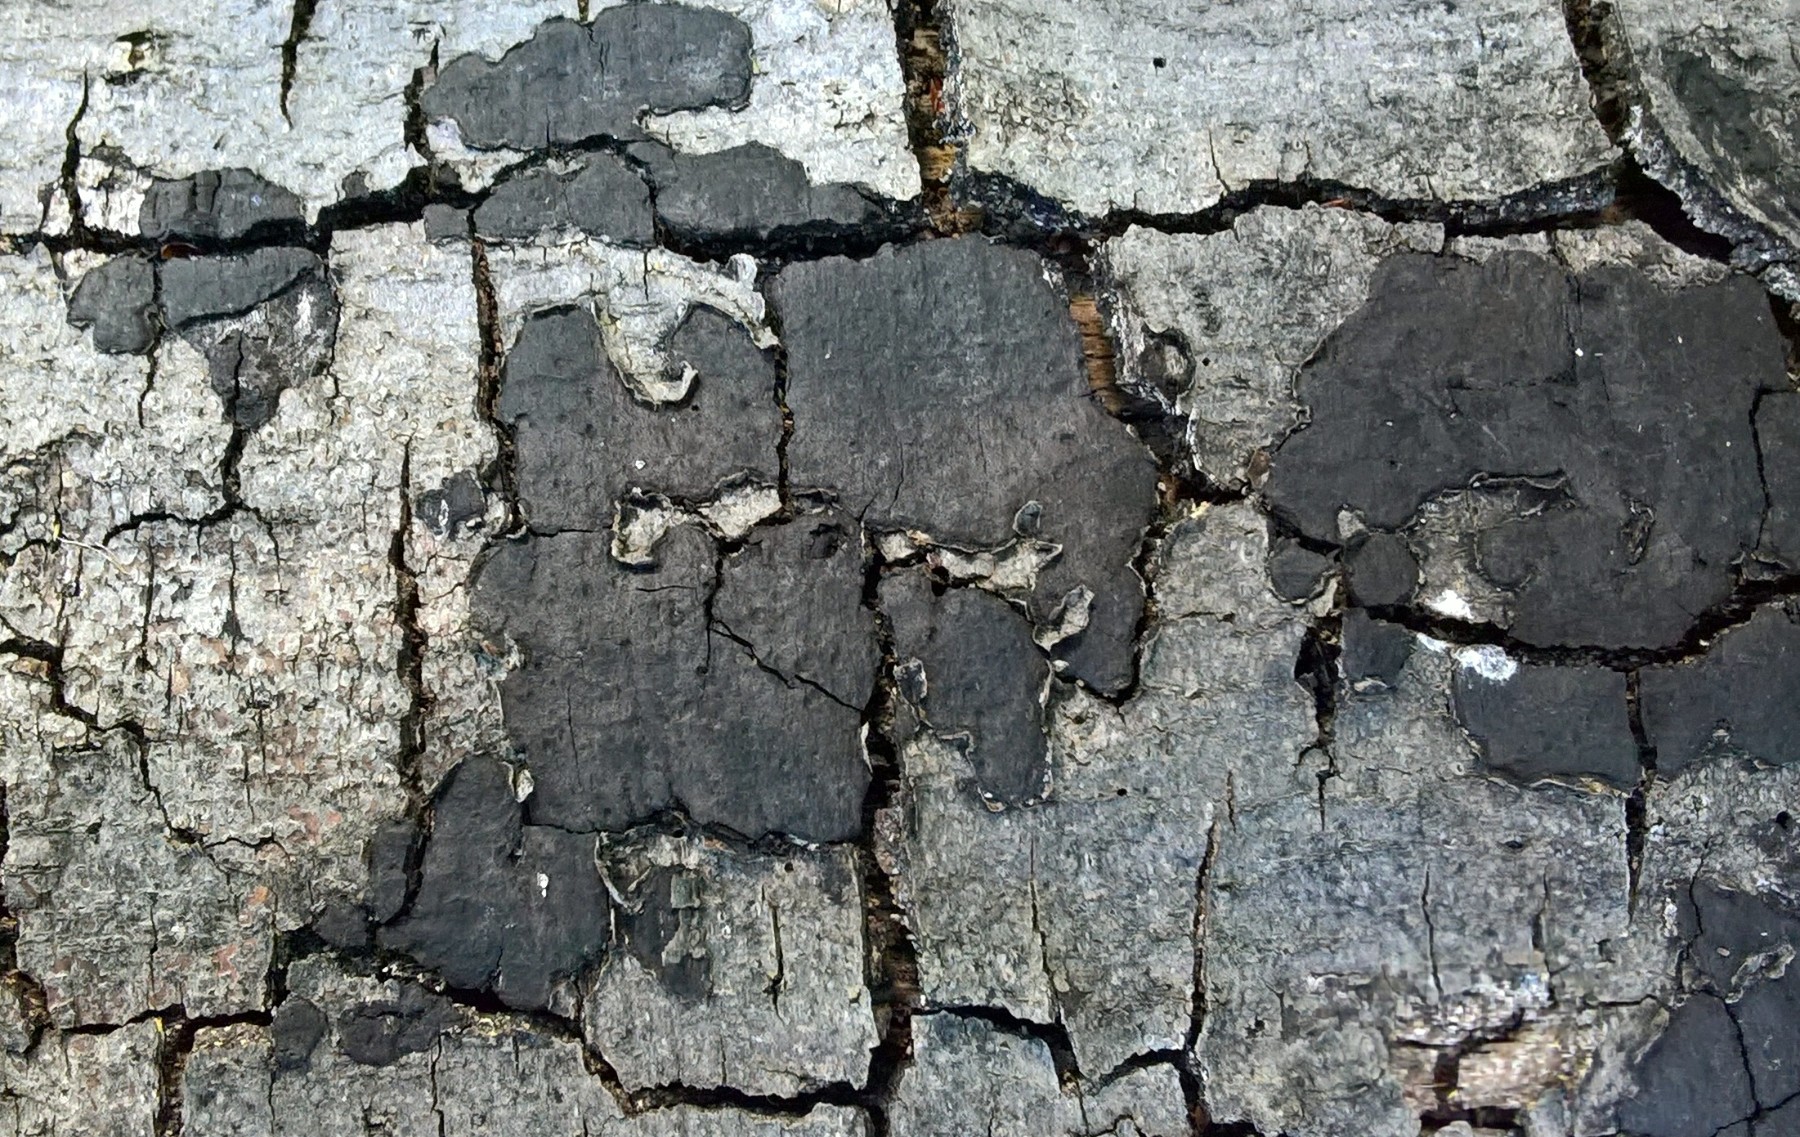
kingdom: Fungi
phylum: Ascomycota
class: Sordariomycetes
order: Xylariales
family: Graphostromataceae
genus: Biscogniauxia
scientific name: Biscogniauxia nummularia
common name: bøge-kulskive
